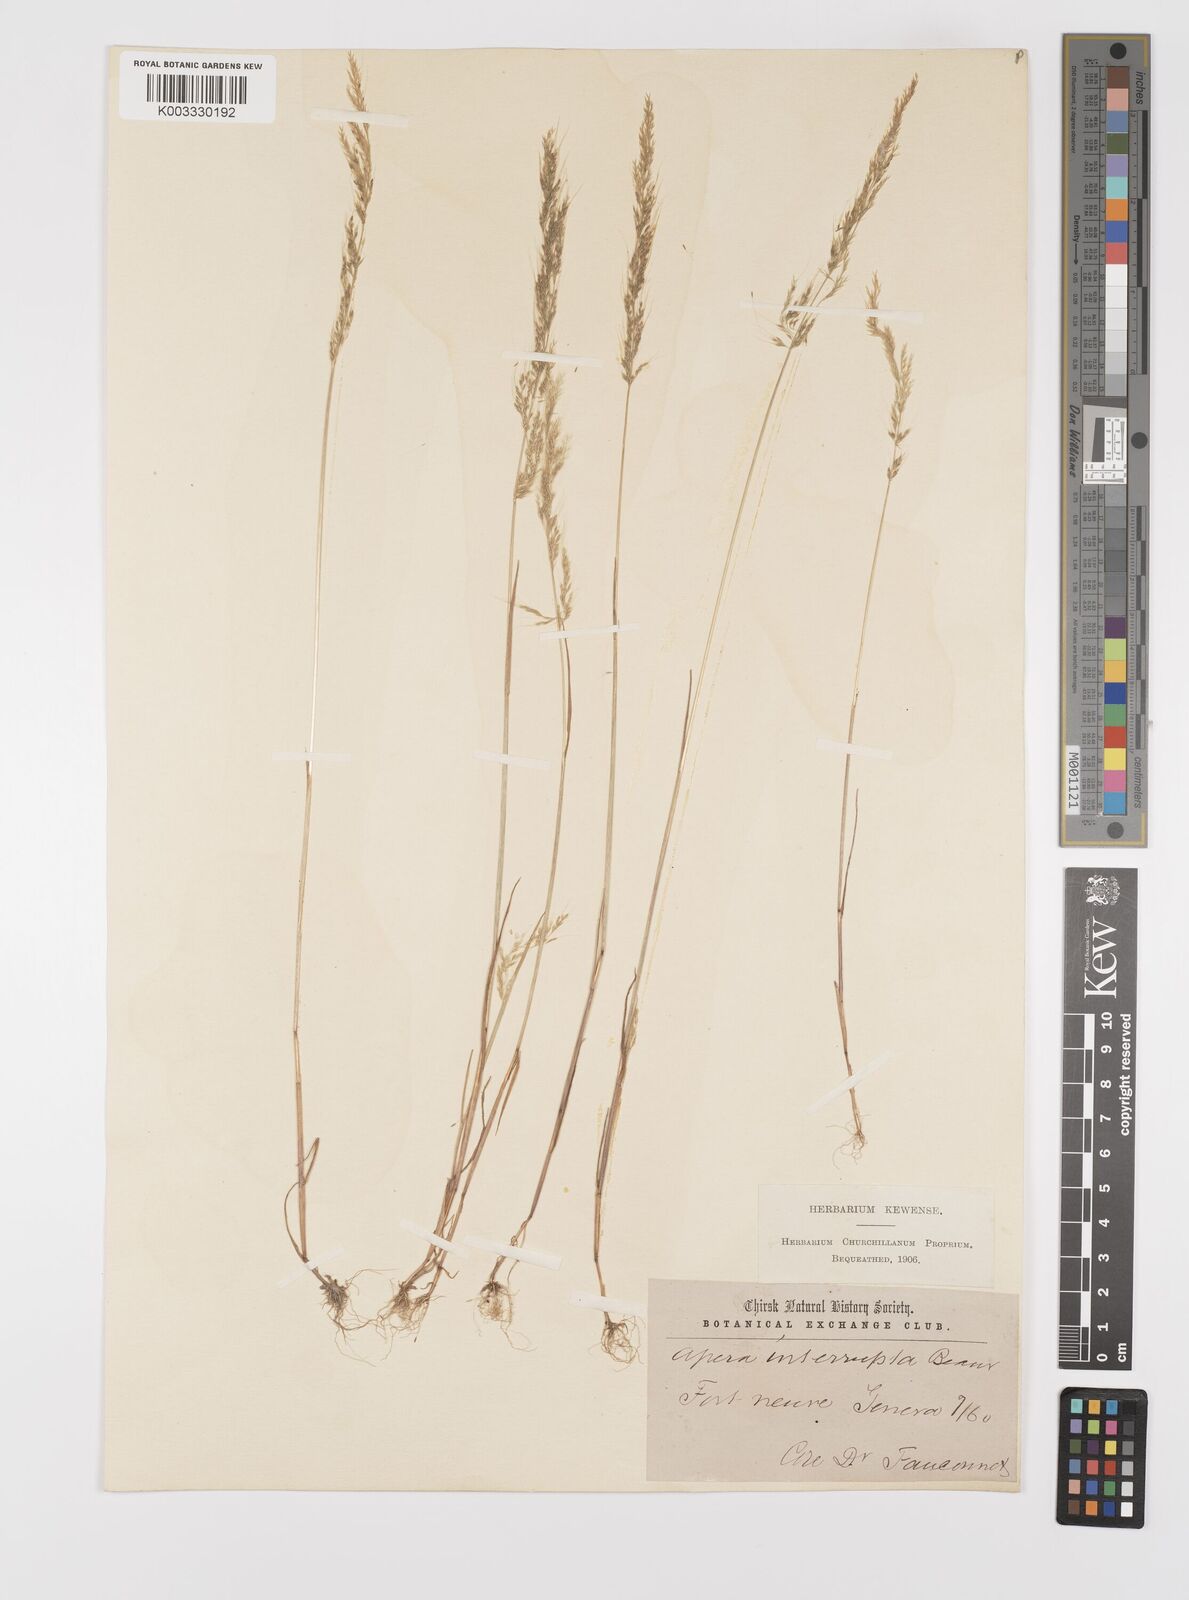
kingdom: Plantae
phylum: Tracheophyta
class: Liliopsida
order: Poales
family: Poaceae
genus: Apera
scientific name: Apera interrupta
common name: Dense silky-bent
